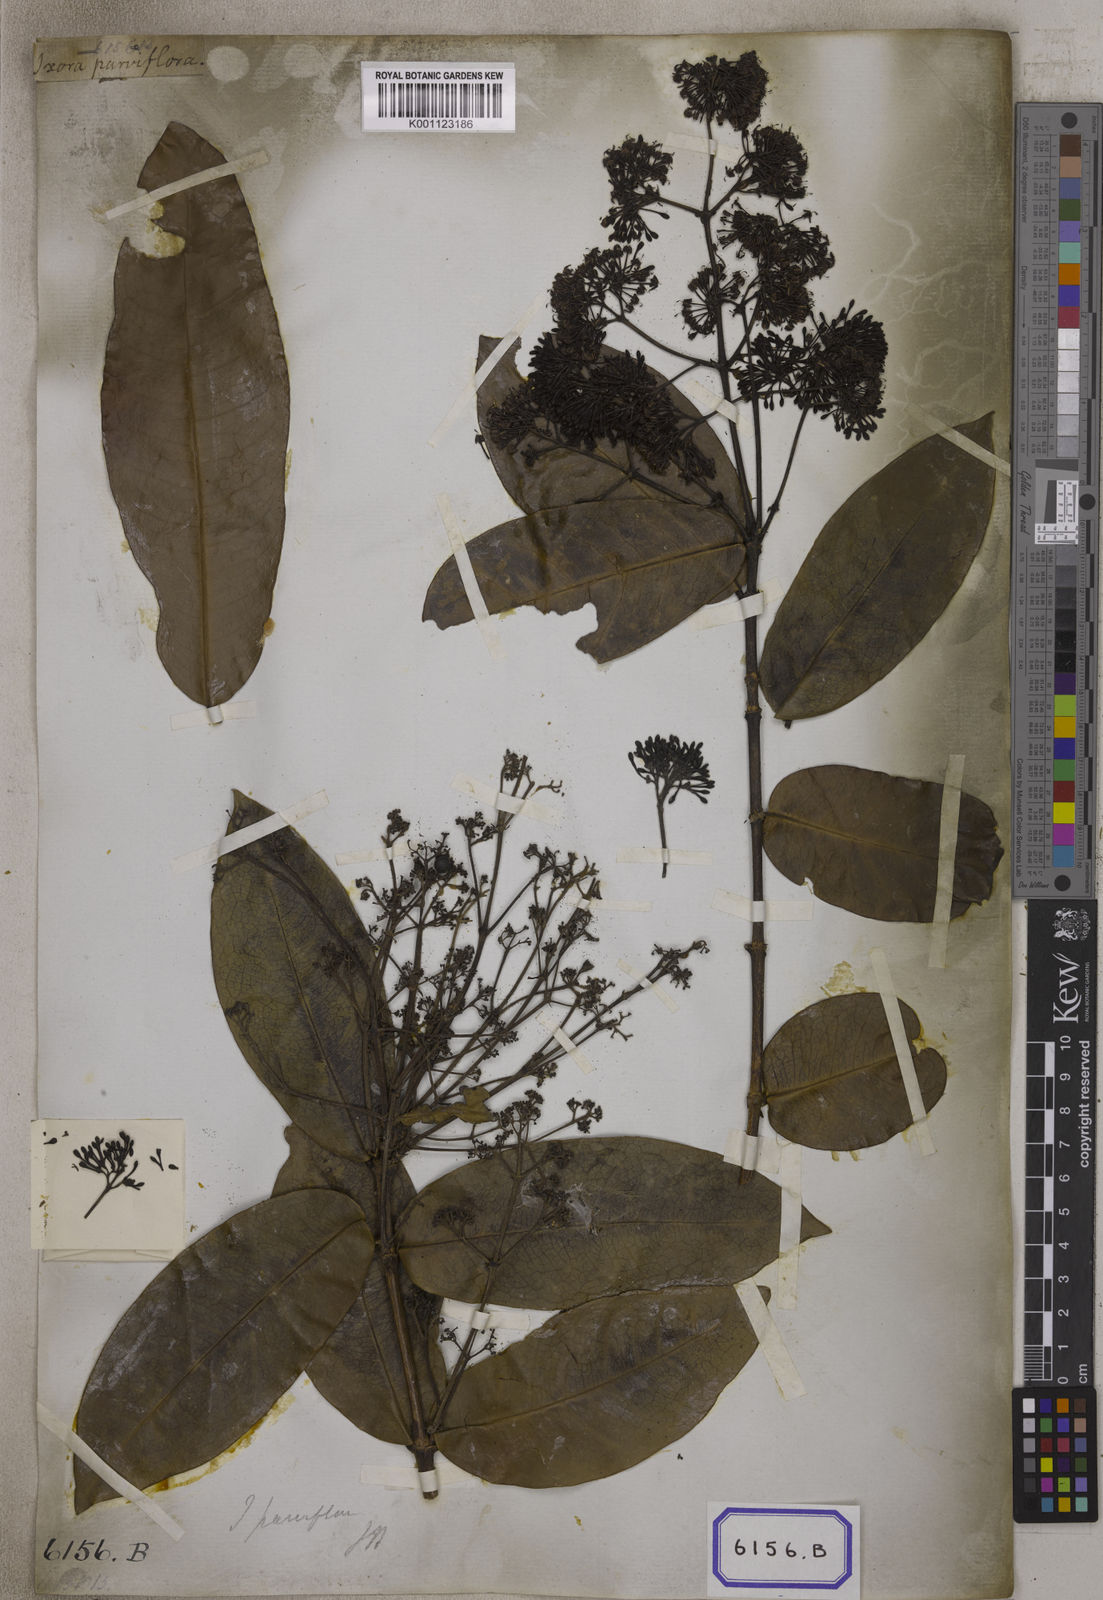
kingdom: Plantae
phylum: Tracheophyta
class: Magnoliopsida
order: Gentianales
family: Rubiaceae
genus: Ixora
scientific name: Ixora pavetta
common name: Torch tree
